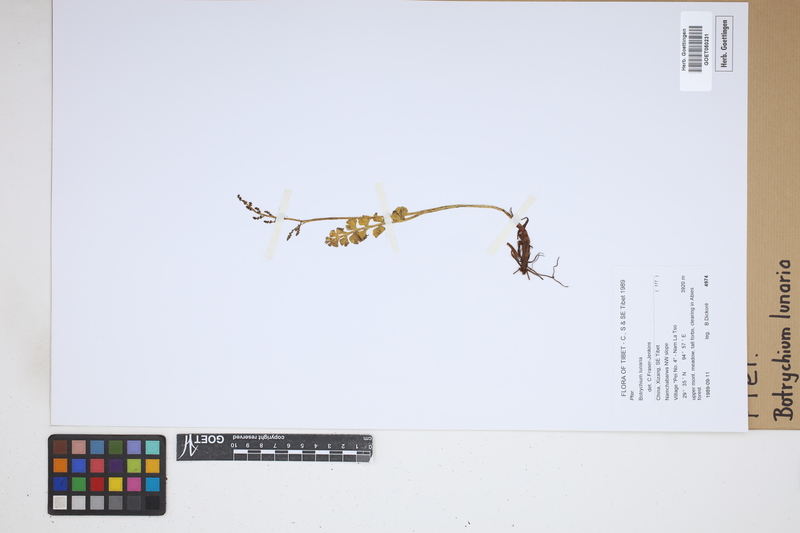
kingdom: Plantae
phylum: Tracheophyta
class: Polypodiopsida
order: Ophioglossales
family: Ophioglossaceae
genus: Botrychium
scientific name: Botrychium lunaria
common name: Moonwort
